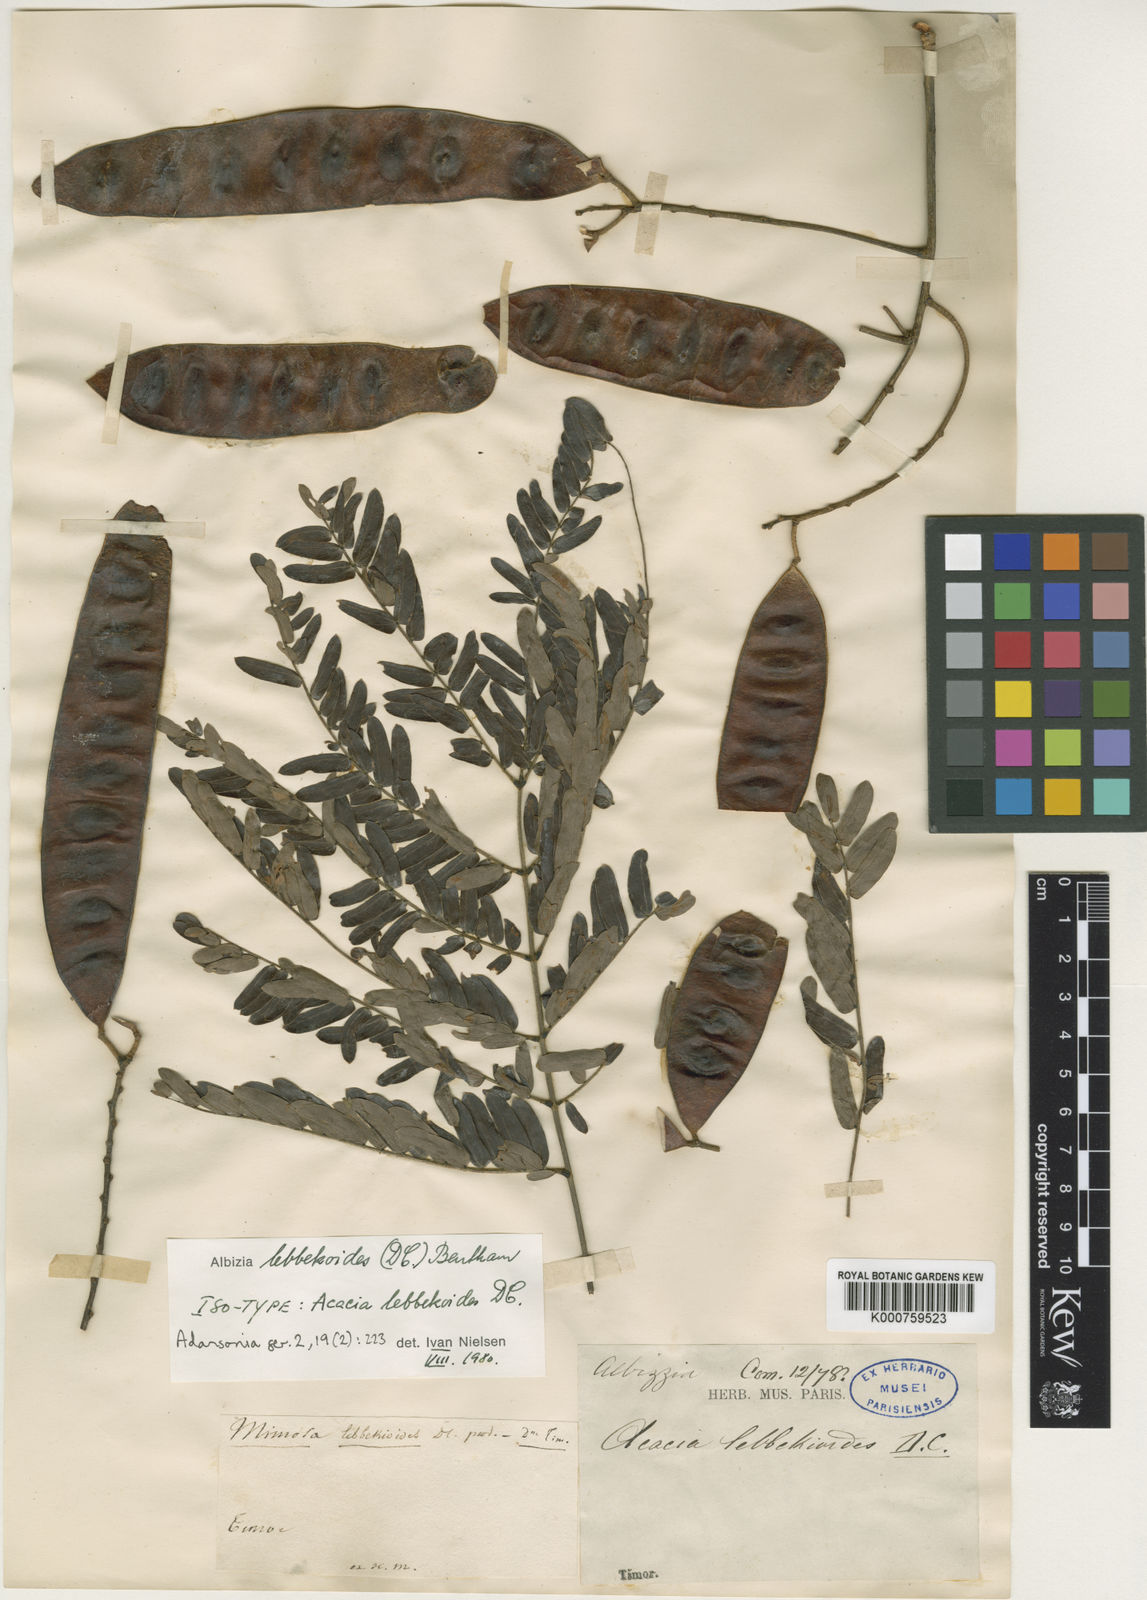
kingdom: Plantae
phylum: Tracheophyta
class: Magnoliopsida
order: Fabales
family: Fabaceae
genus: Albizia
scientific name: Albizia
